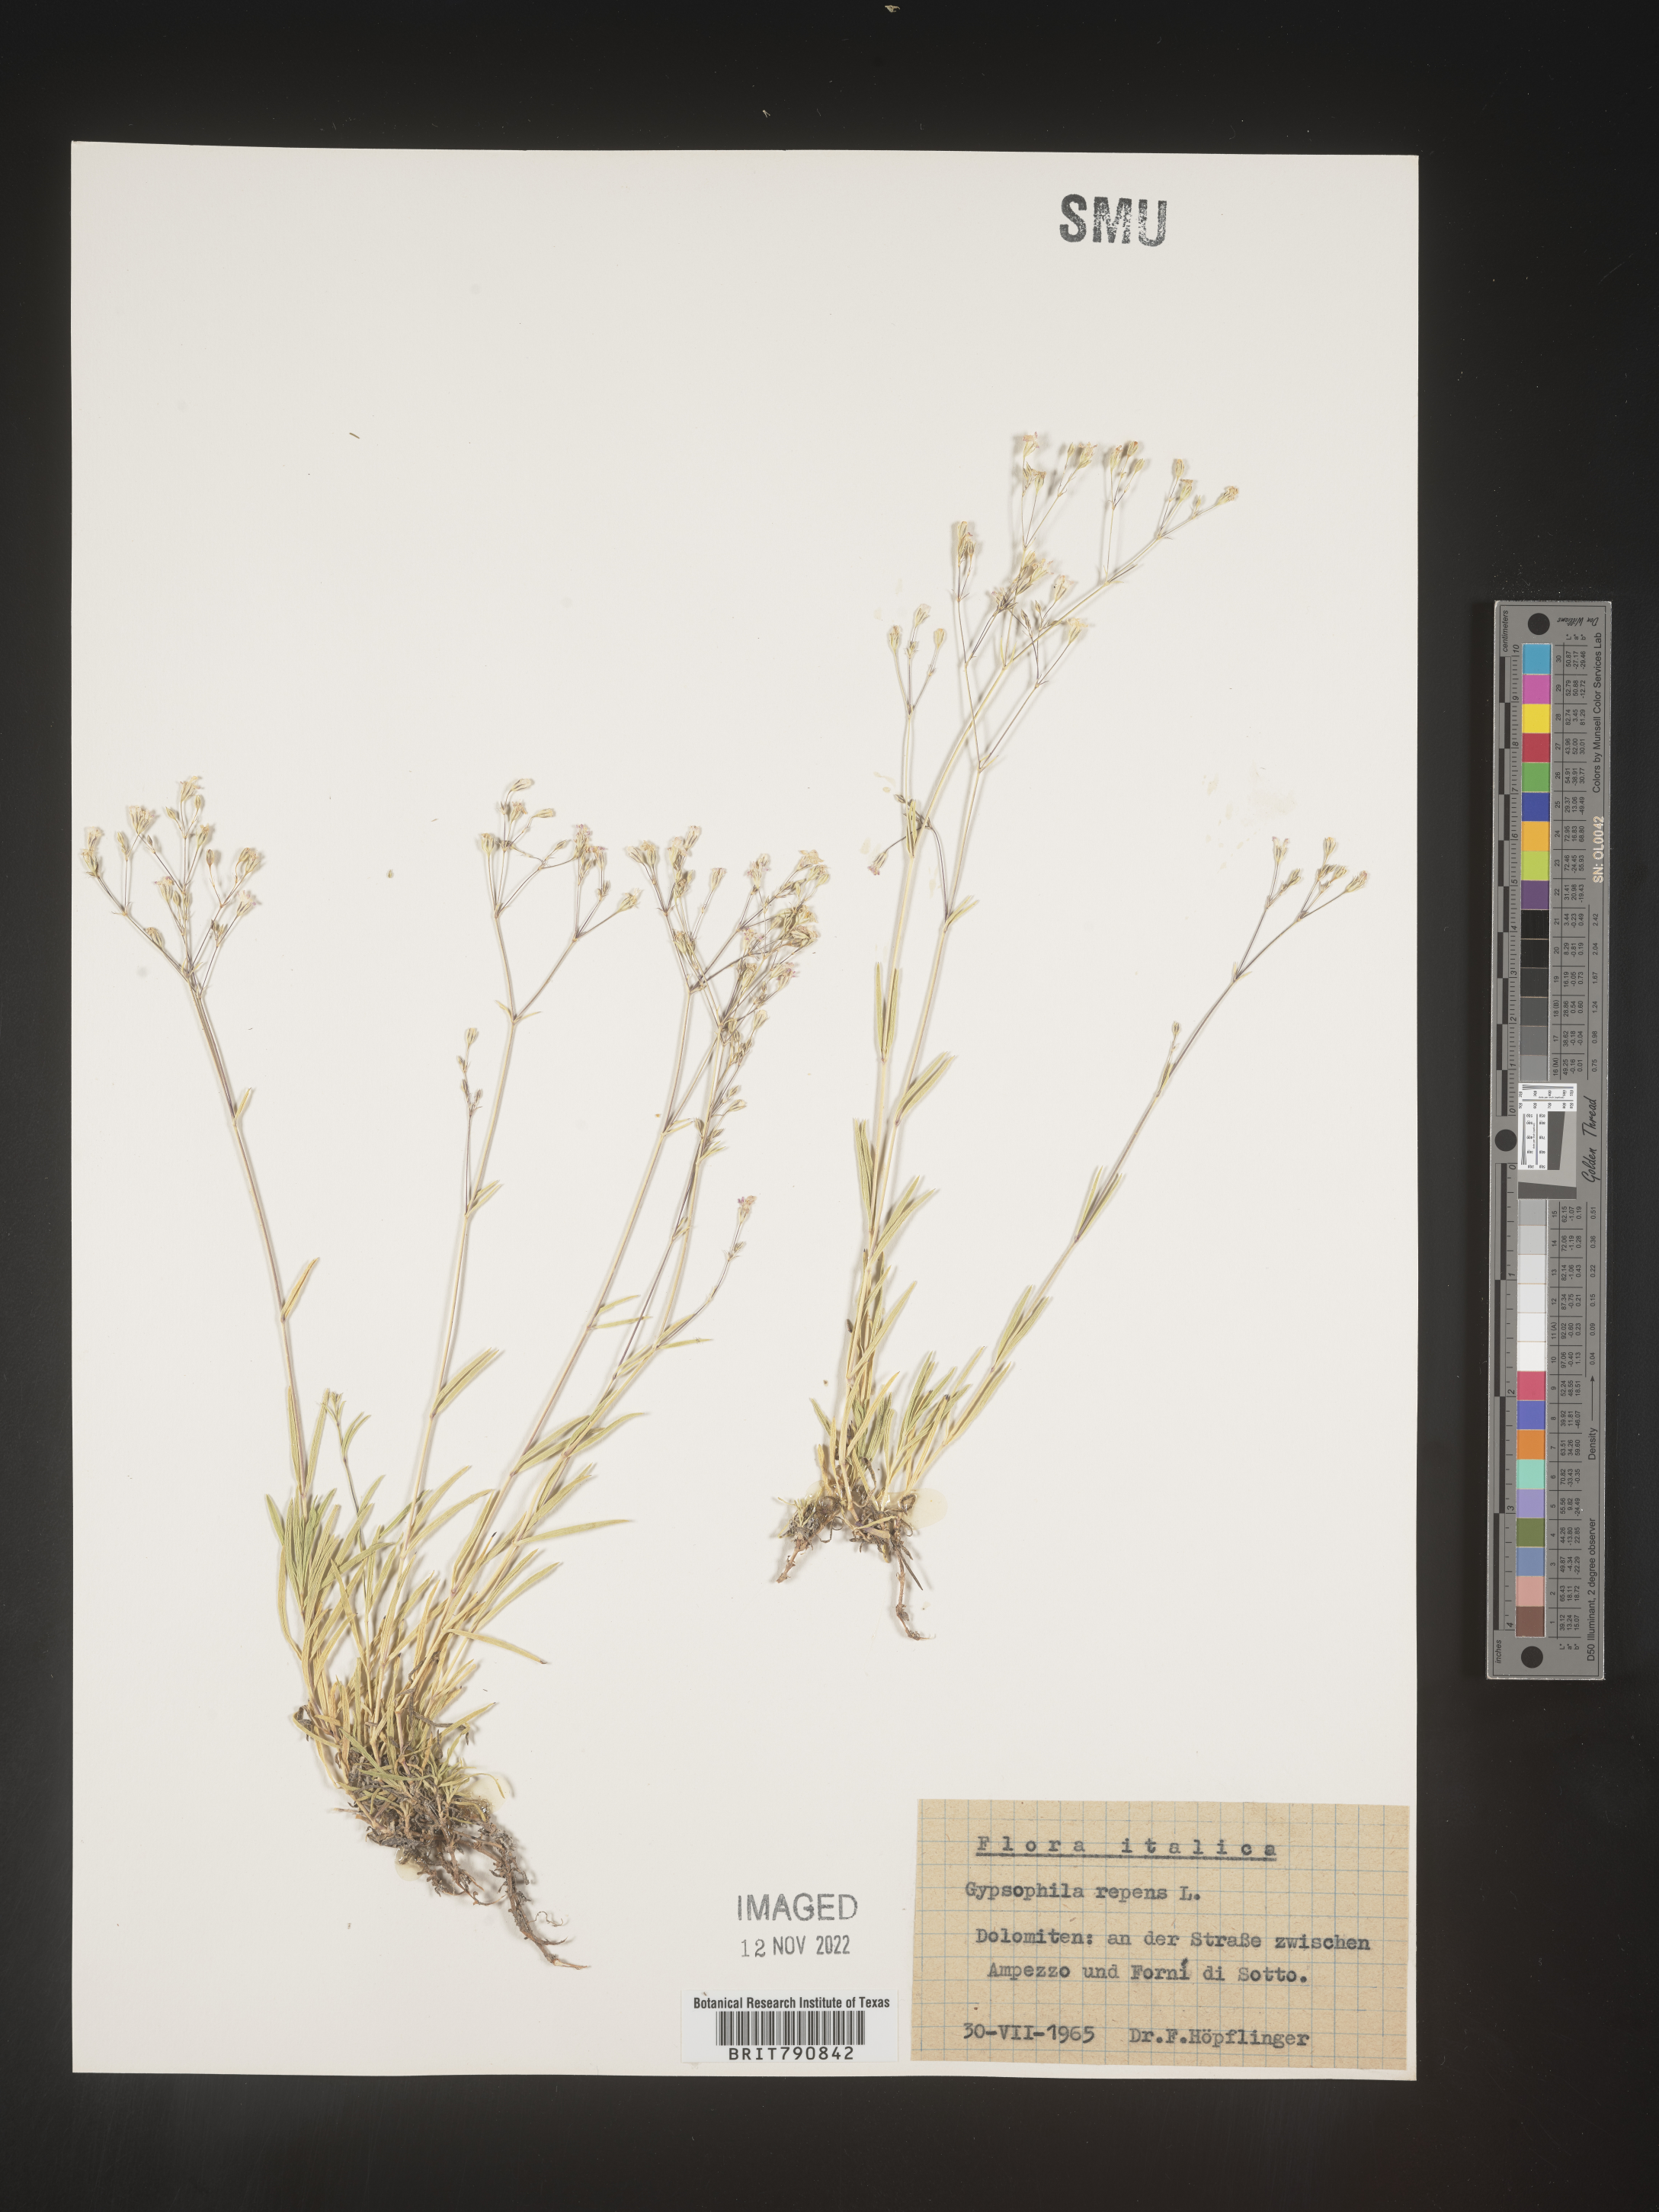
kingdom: Plantae
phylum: Tracheophyta
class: Magnoliopsida
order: Caryophyllales
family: Caryophyllaceae
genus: Gypsophila
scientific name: Gypsophila
